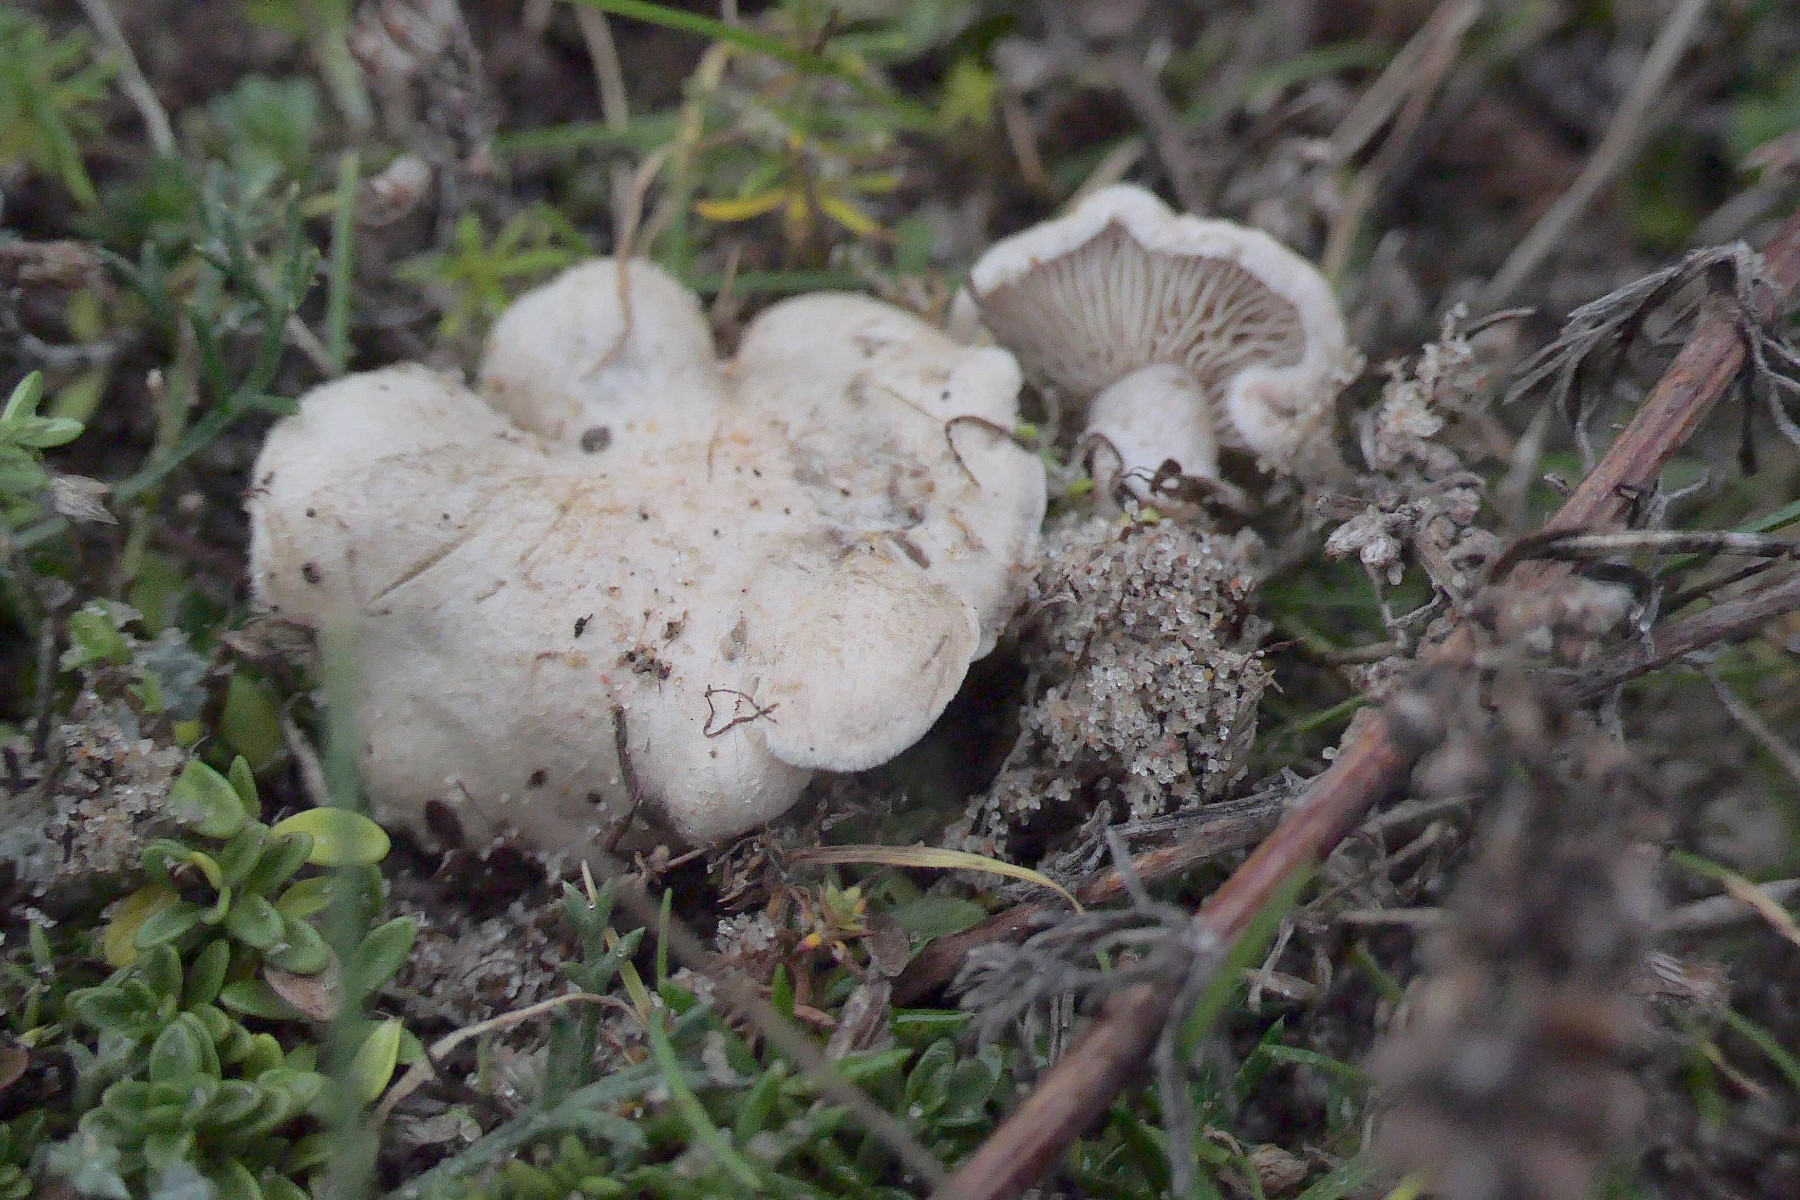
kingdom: Fungi
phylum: Basidiomycota
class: Agaricomycetes
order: Agaricales
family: Tricholomataceae
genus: Lulesia
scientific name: Lulesia
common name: sortnende troldhat
